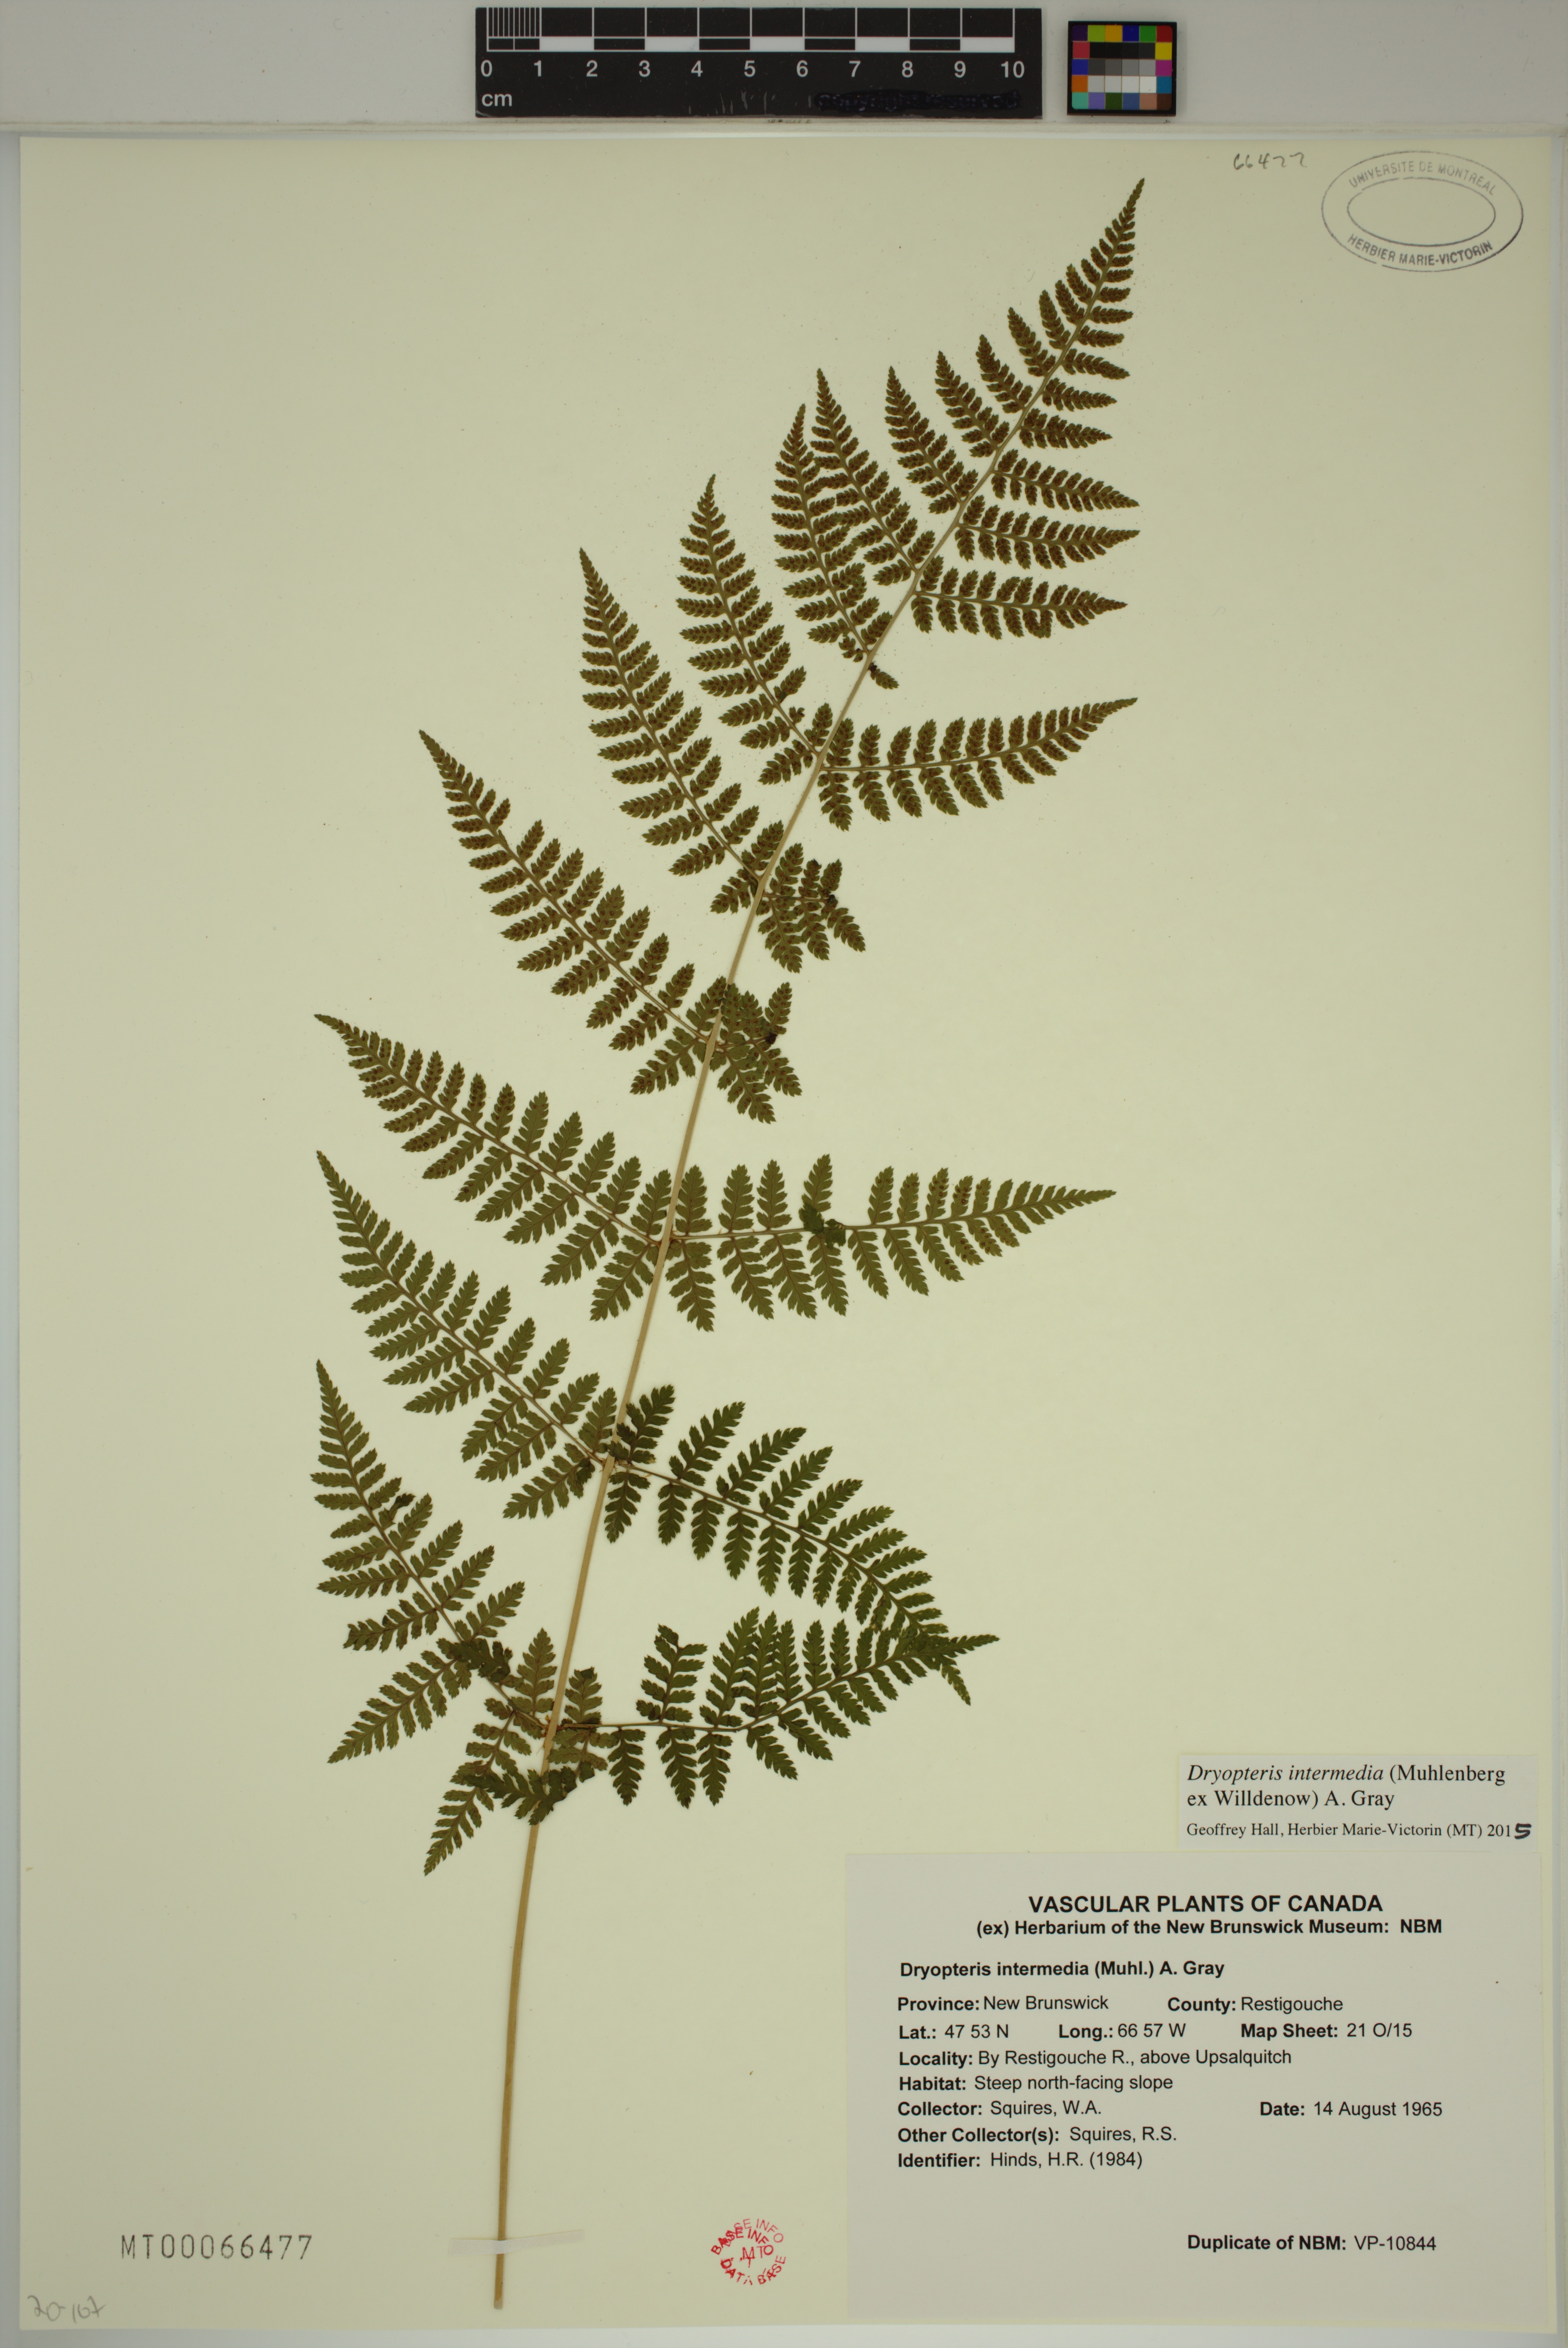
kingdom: Plantae
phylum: Tracheophyta
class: Polypodiopsida
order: Polypodiales
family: Dryopteridaceae
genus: Dryopteris
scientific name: Dryopteris intermedia
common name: Evergreen wood fern
